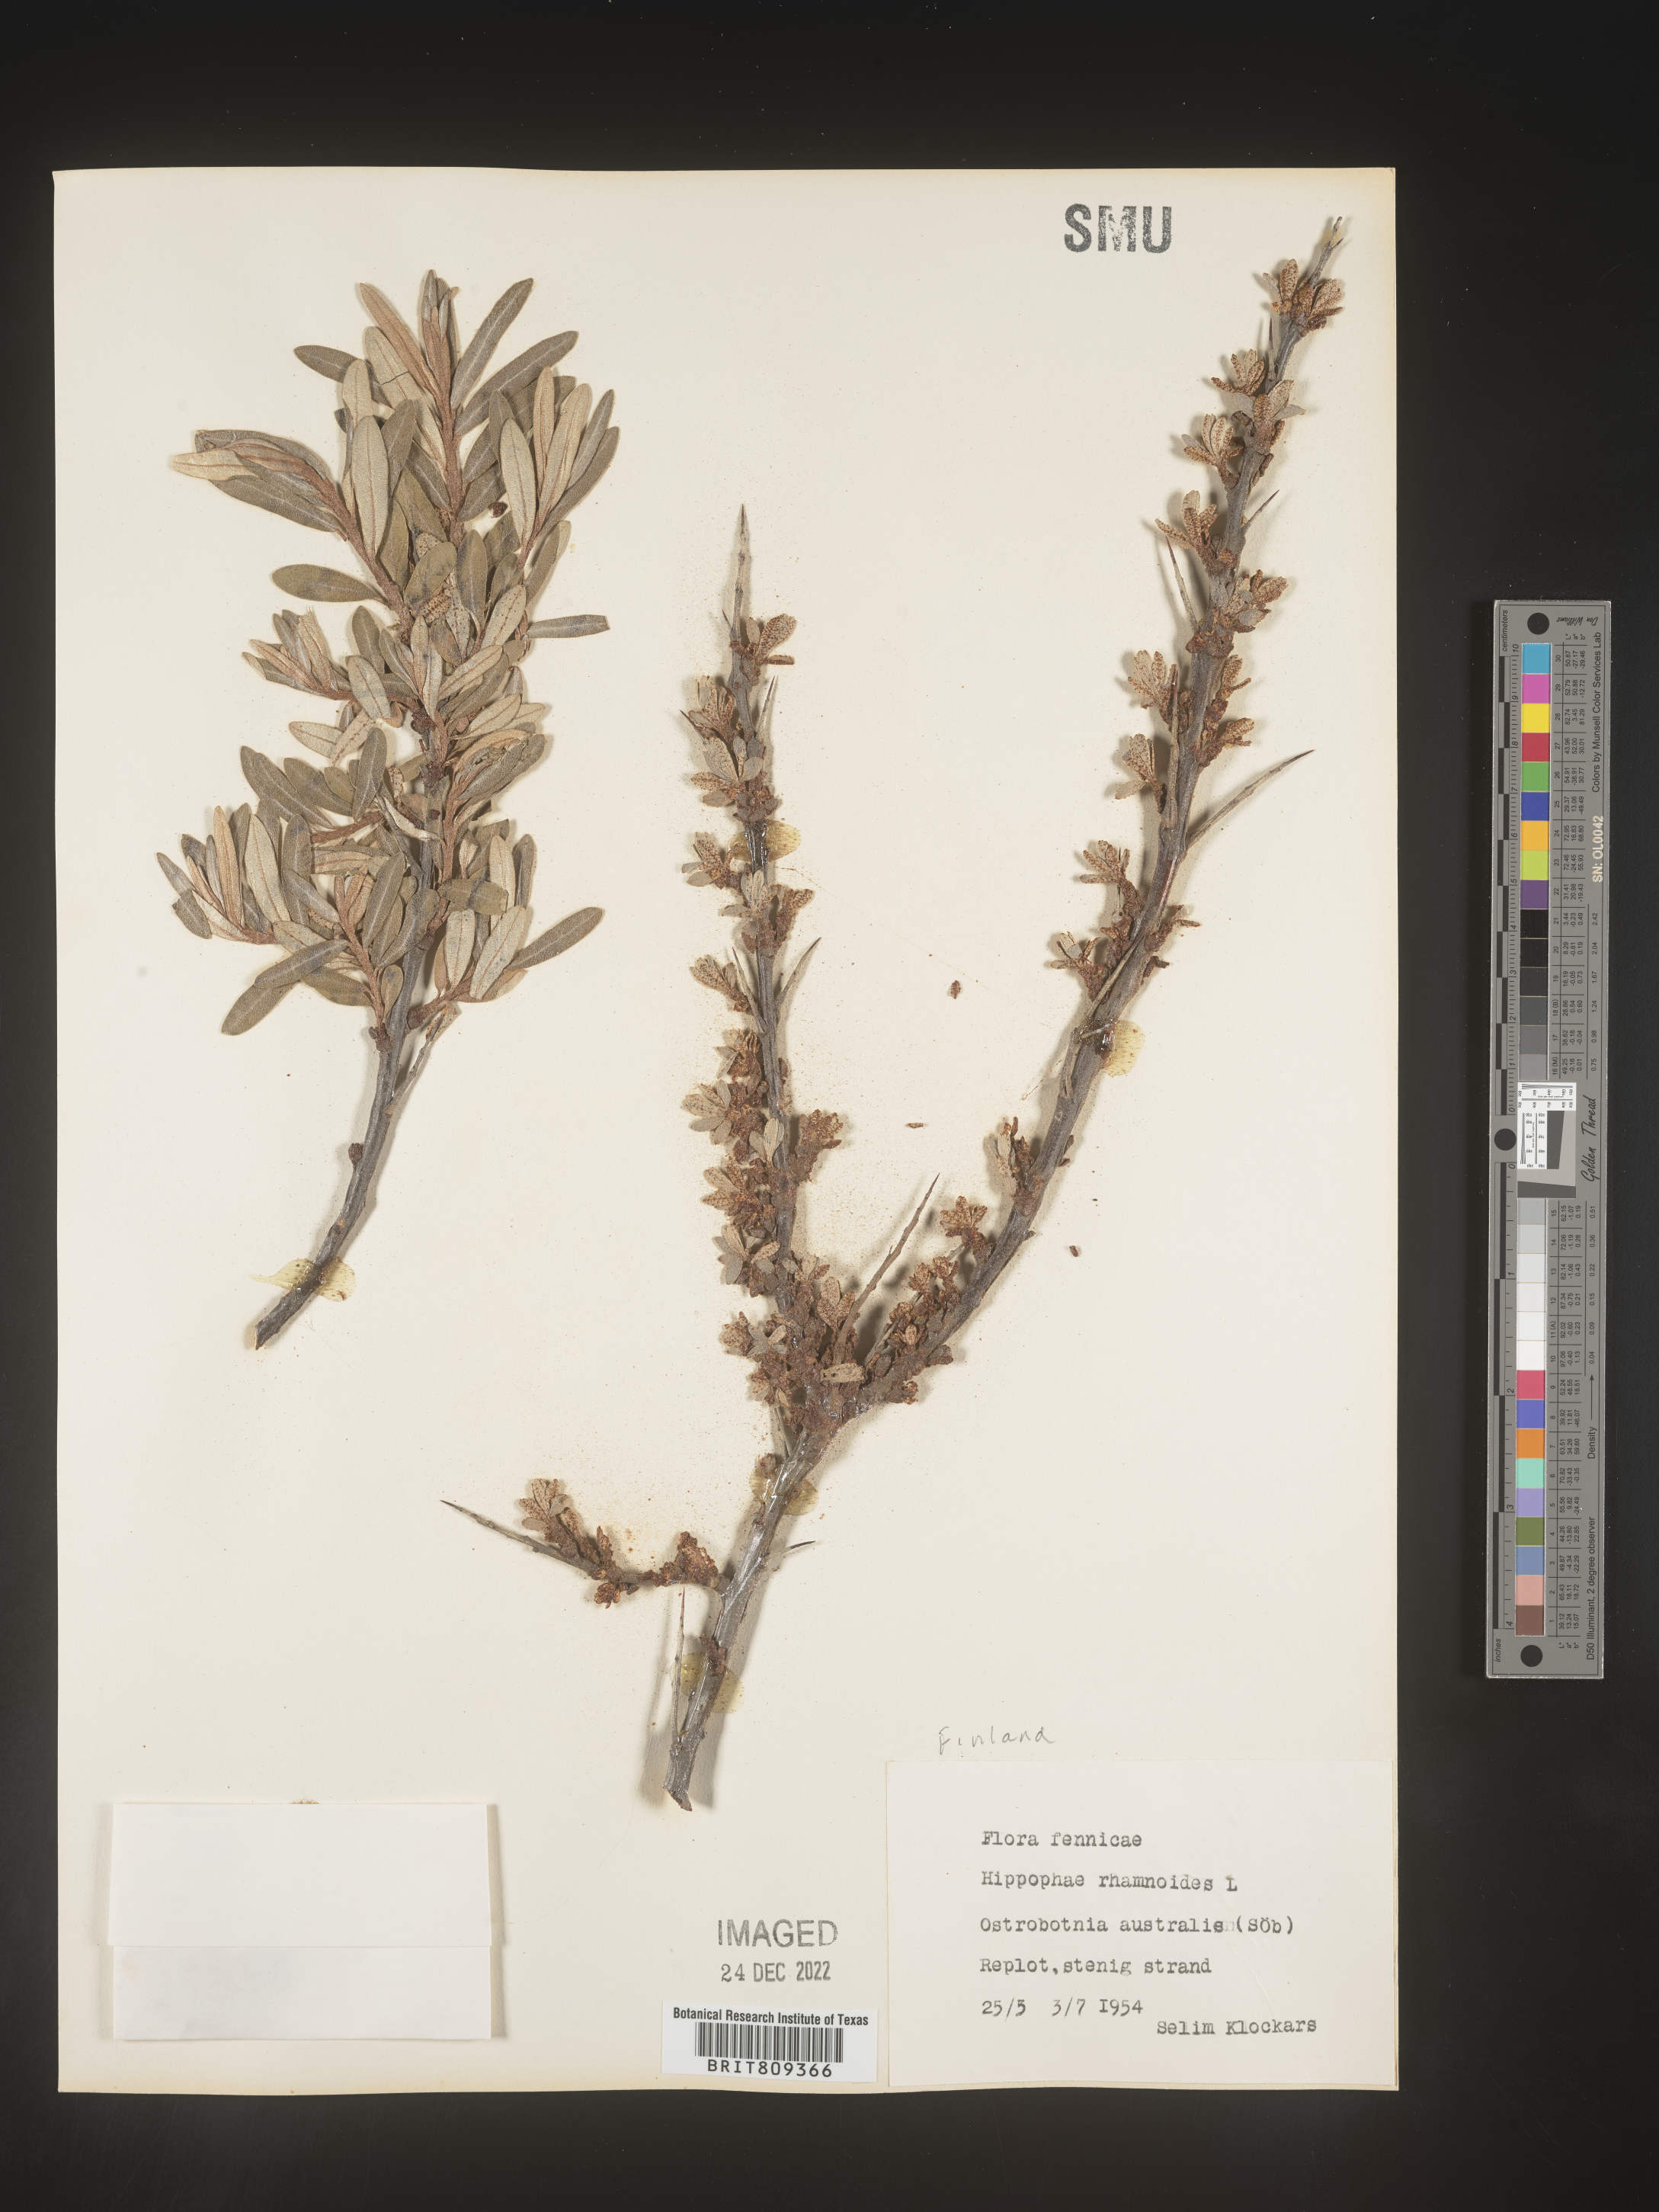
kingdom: Plantae
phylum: Tracheophyta
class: Magnoliopsida
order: Rosales
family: Elaeagnaceae
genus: Hippophae
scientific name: Hippophae
